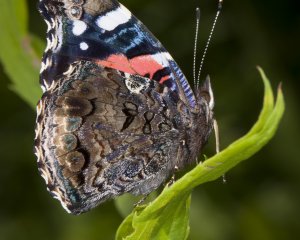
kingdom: Animalia
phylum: Arthropoda
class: Insecta
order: Lepidoptera
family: Nymphalidae
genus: Vanessa
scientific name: Vanessa atalanta
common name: Red Admiral
